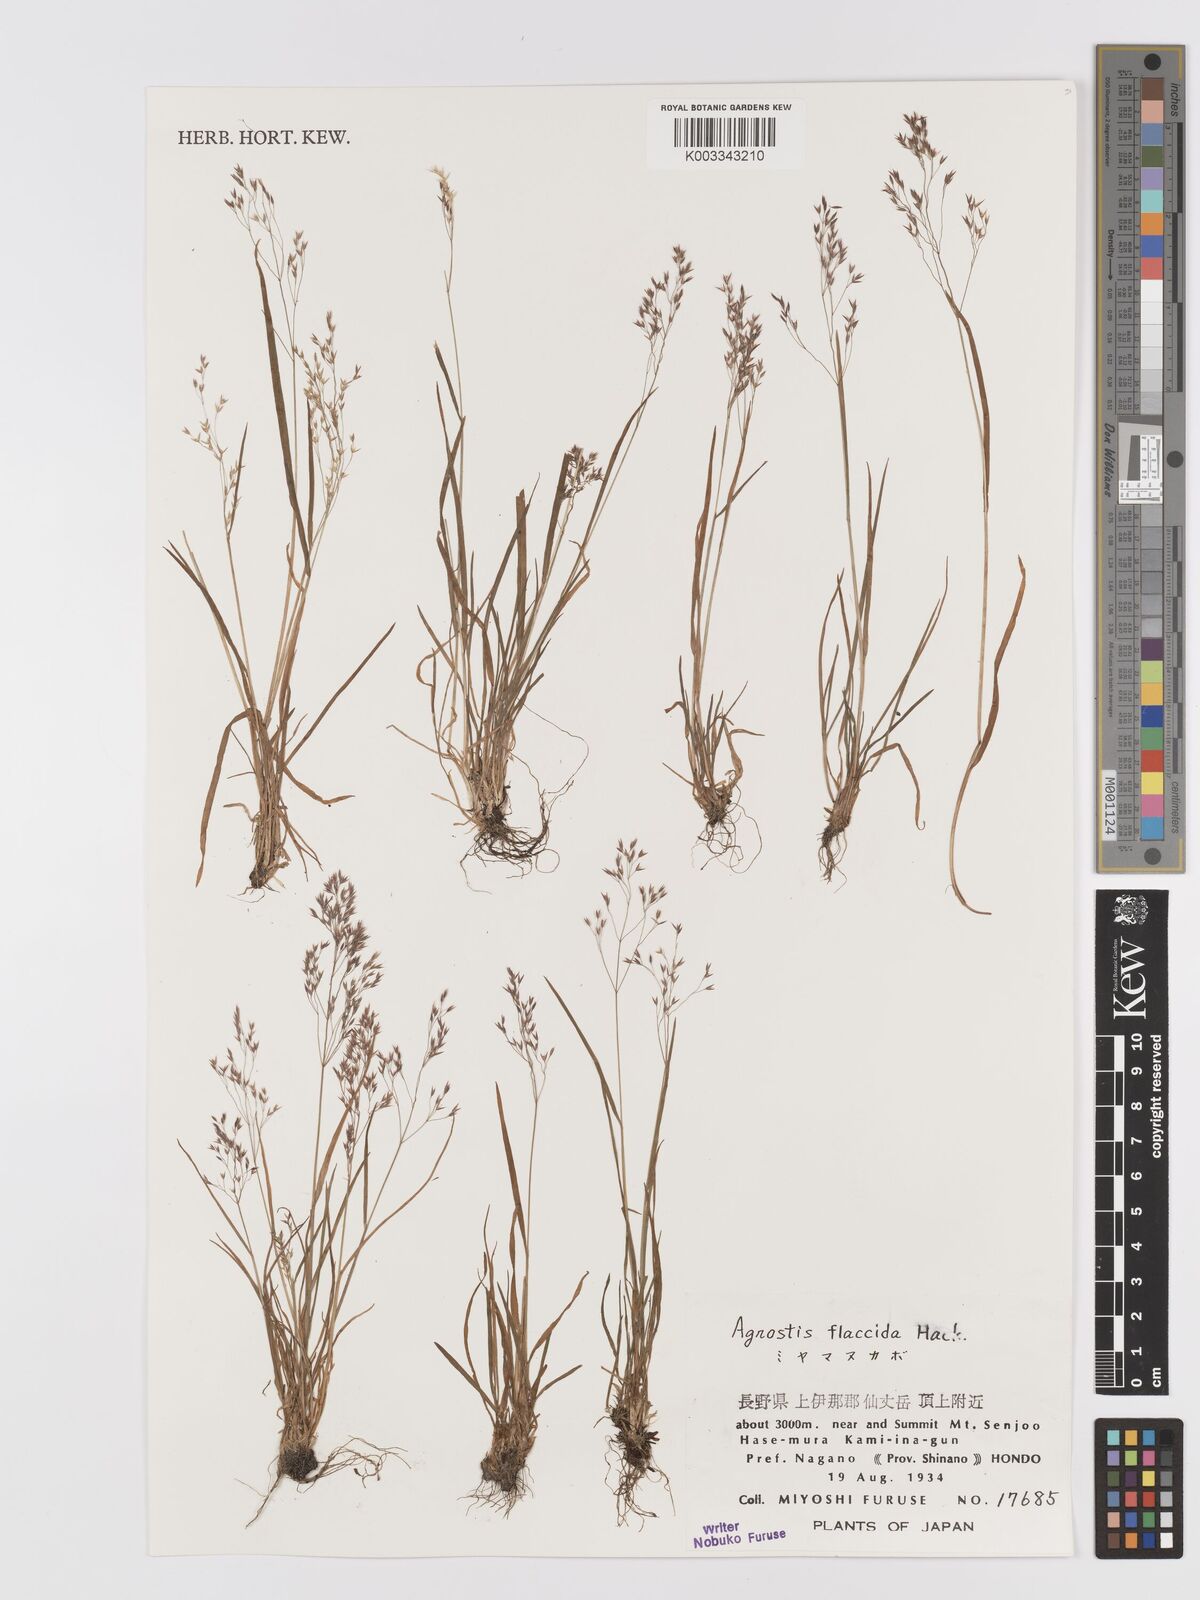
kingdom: Plantae
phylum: Tracheophyta
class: Liliopsida
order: Poales
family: Poaceae
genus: Agrostis
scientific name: Agrostis flaccida
